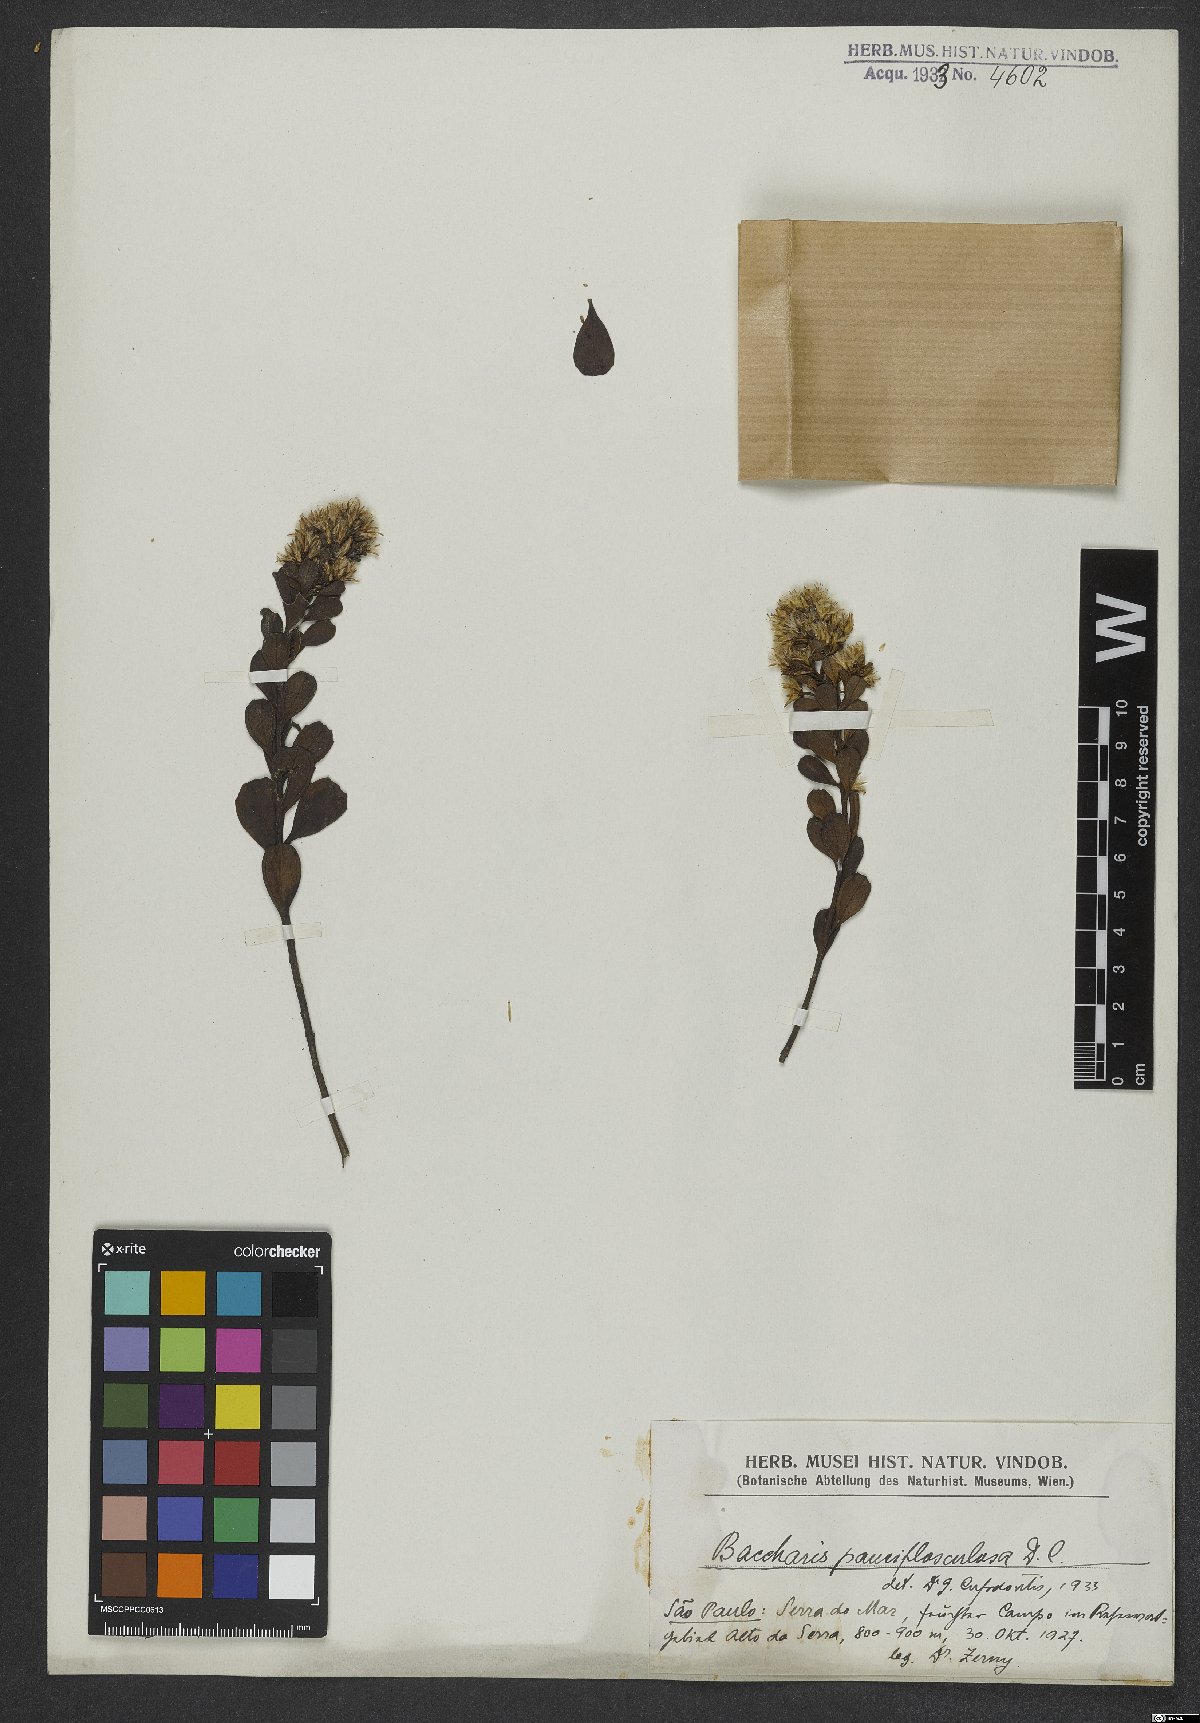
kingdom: Plantae
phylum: Tracheophyta
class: Magnoliopsida
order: Asterales
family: Asteraceae
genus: Baccharis
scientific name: Baccharis pauciflosculosa
